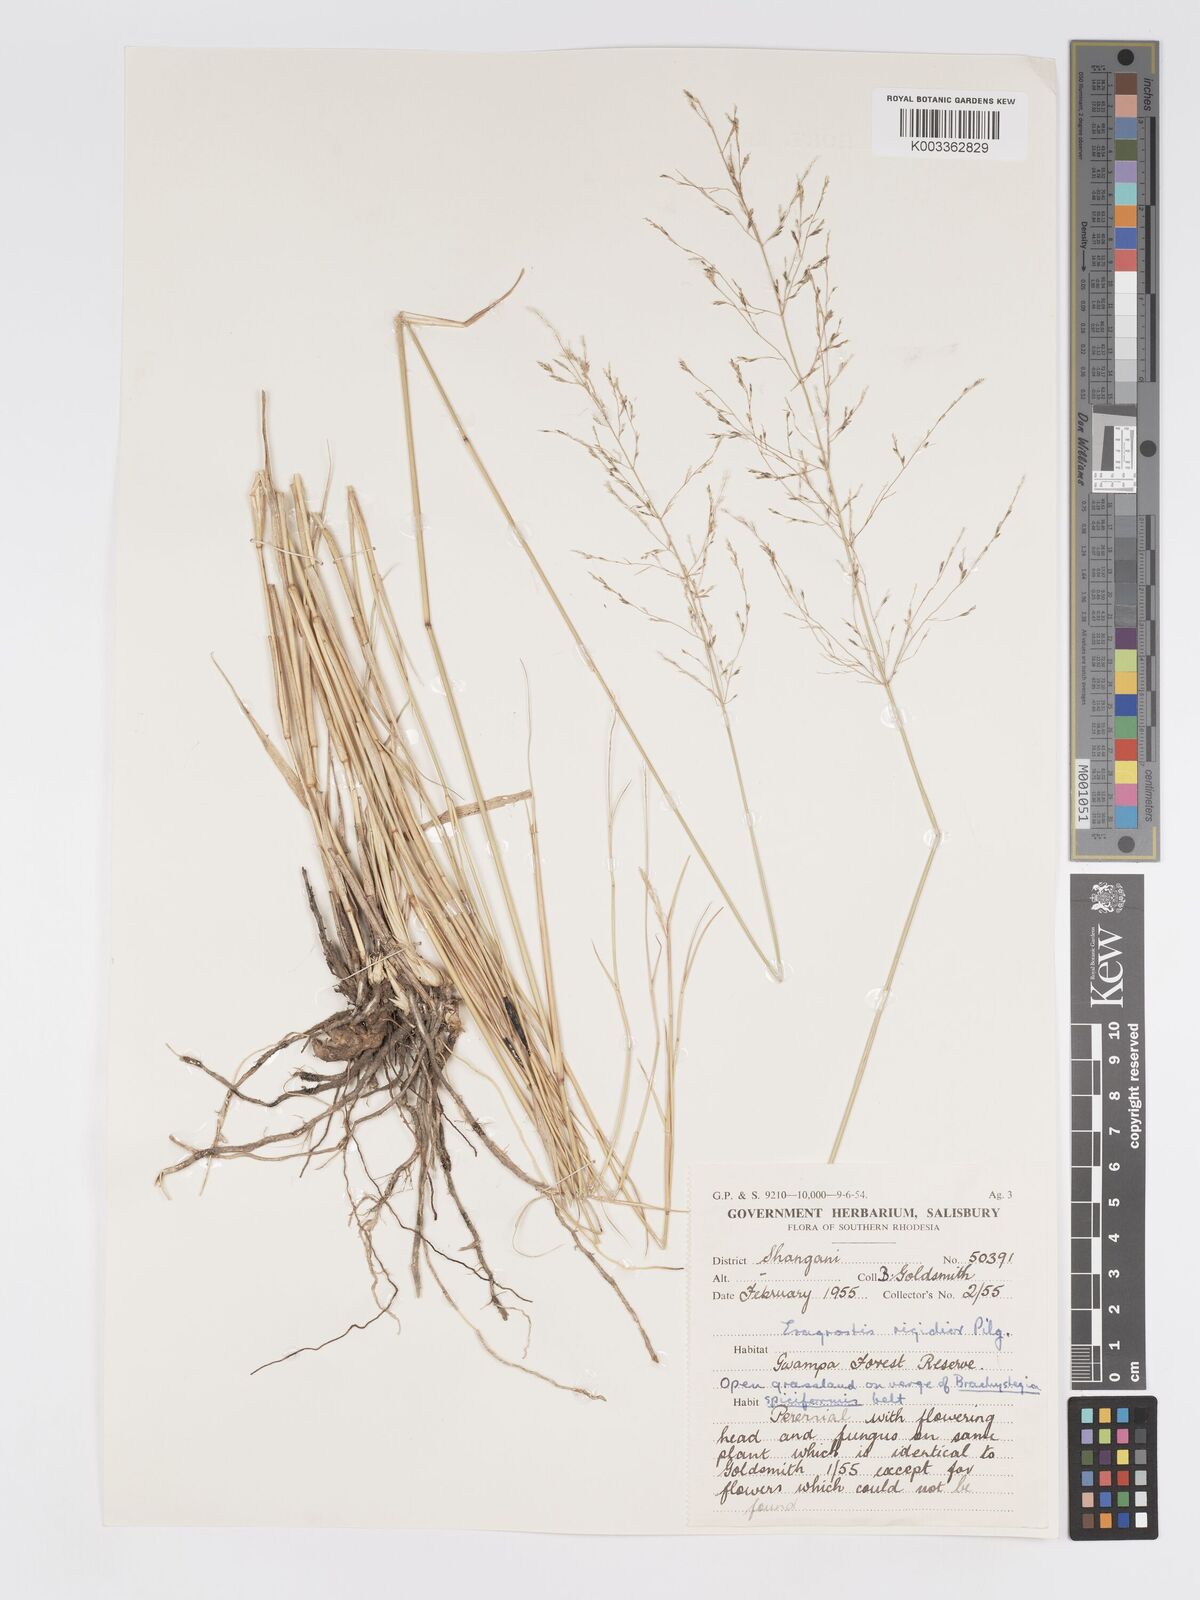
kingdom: Plantae
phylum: Tracheophyta
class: Liliopsida
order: Poales
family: Poaceae
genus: Eragrostis
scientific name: Eragrostis cylindriflora
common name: Cylinderflower lovegrass
